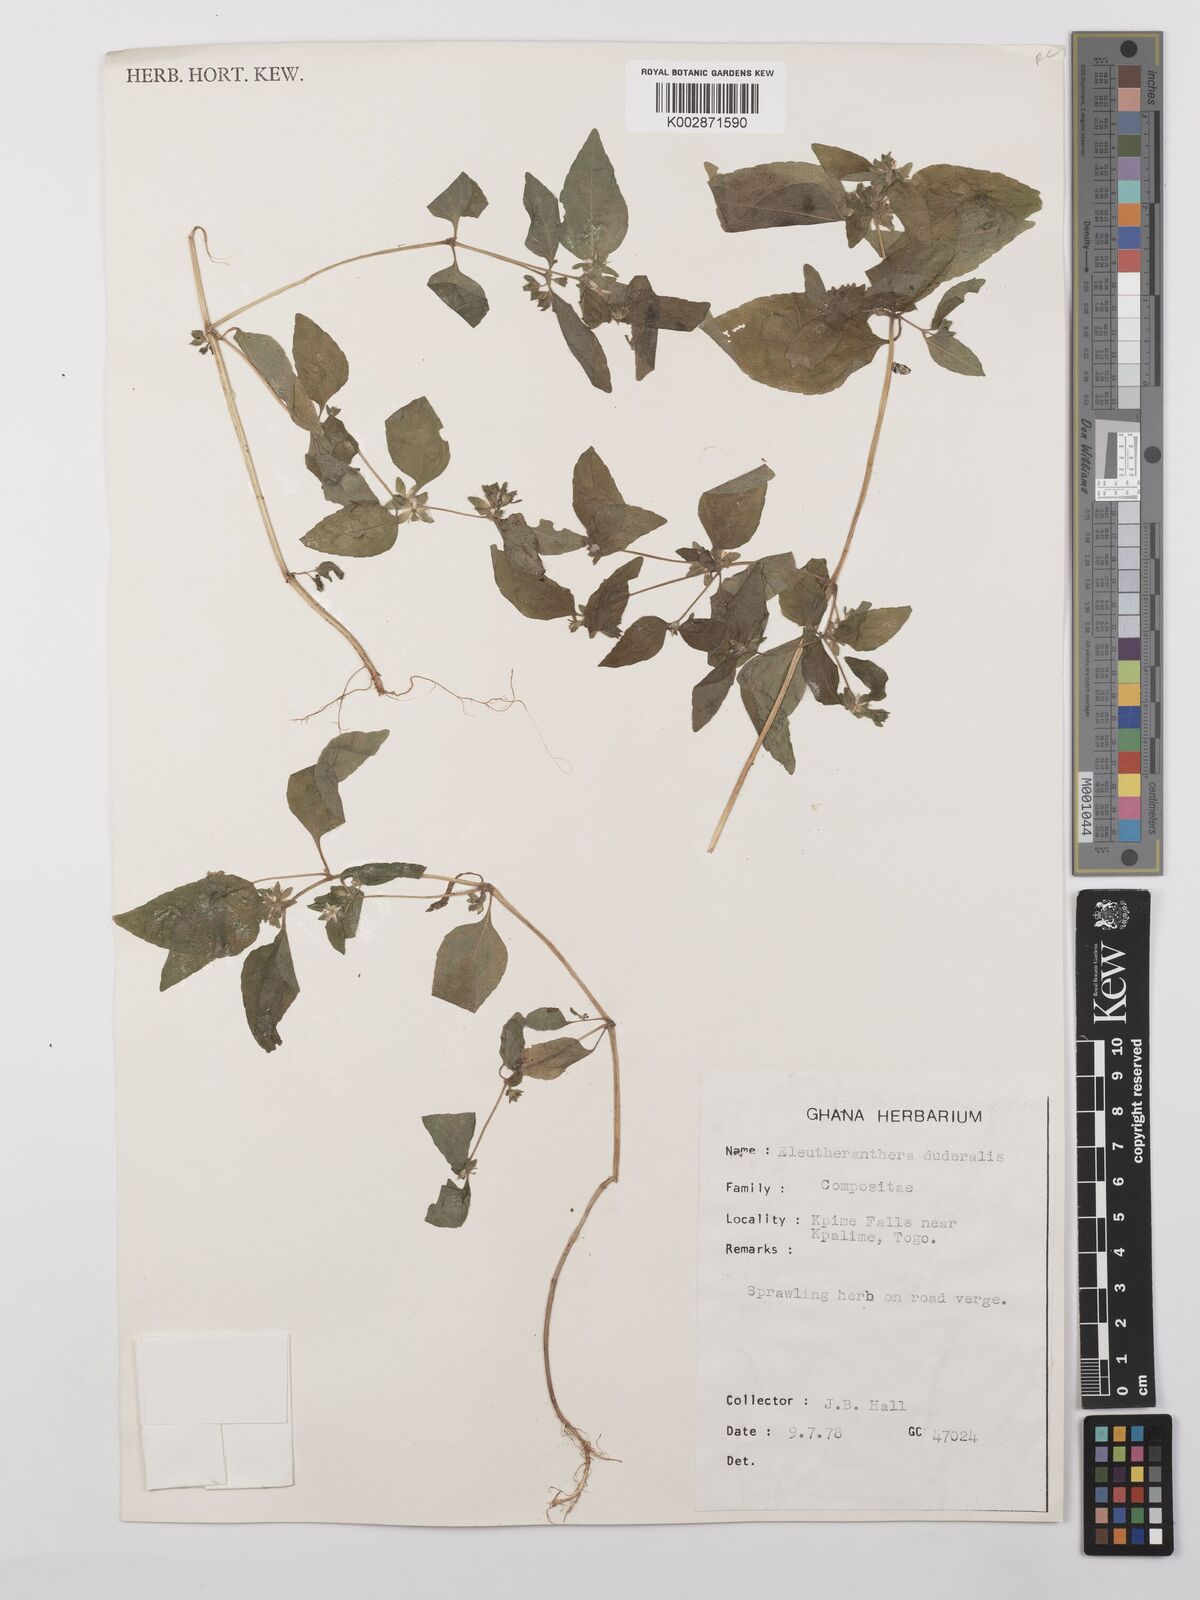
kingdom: Plantae
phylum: Tracheophyta
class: Magnoliopsida
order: Asterales
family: Asteraceae
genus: Eleutheranthera
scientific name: Eleutheranthera ruderalis
